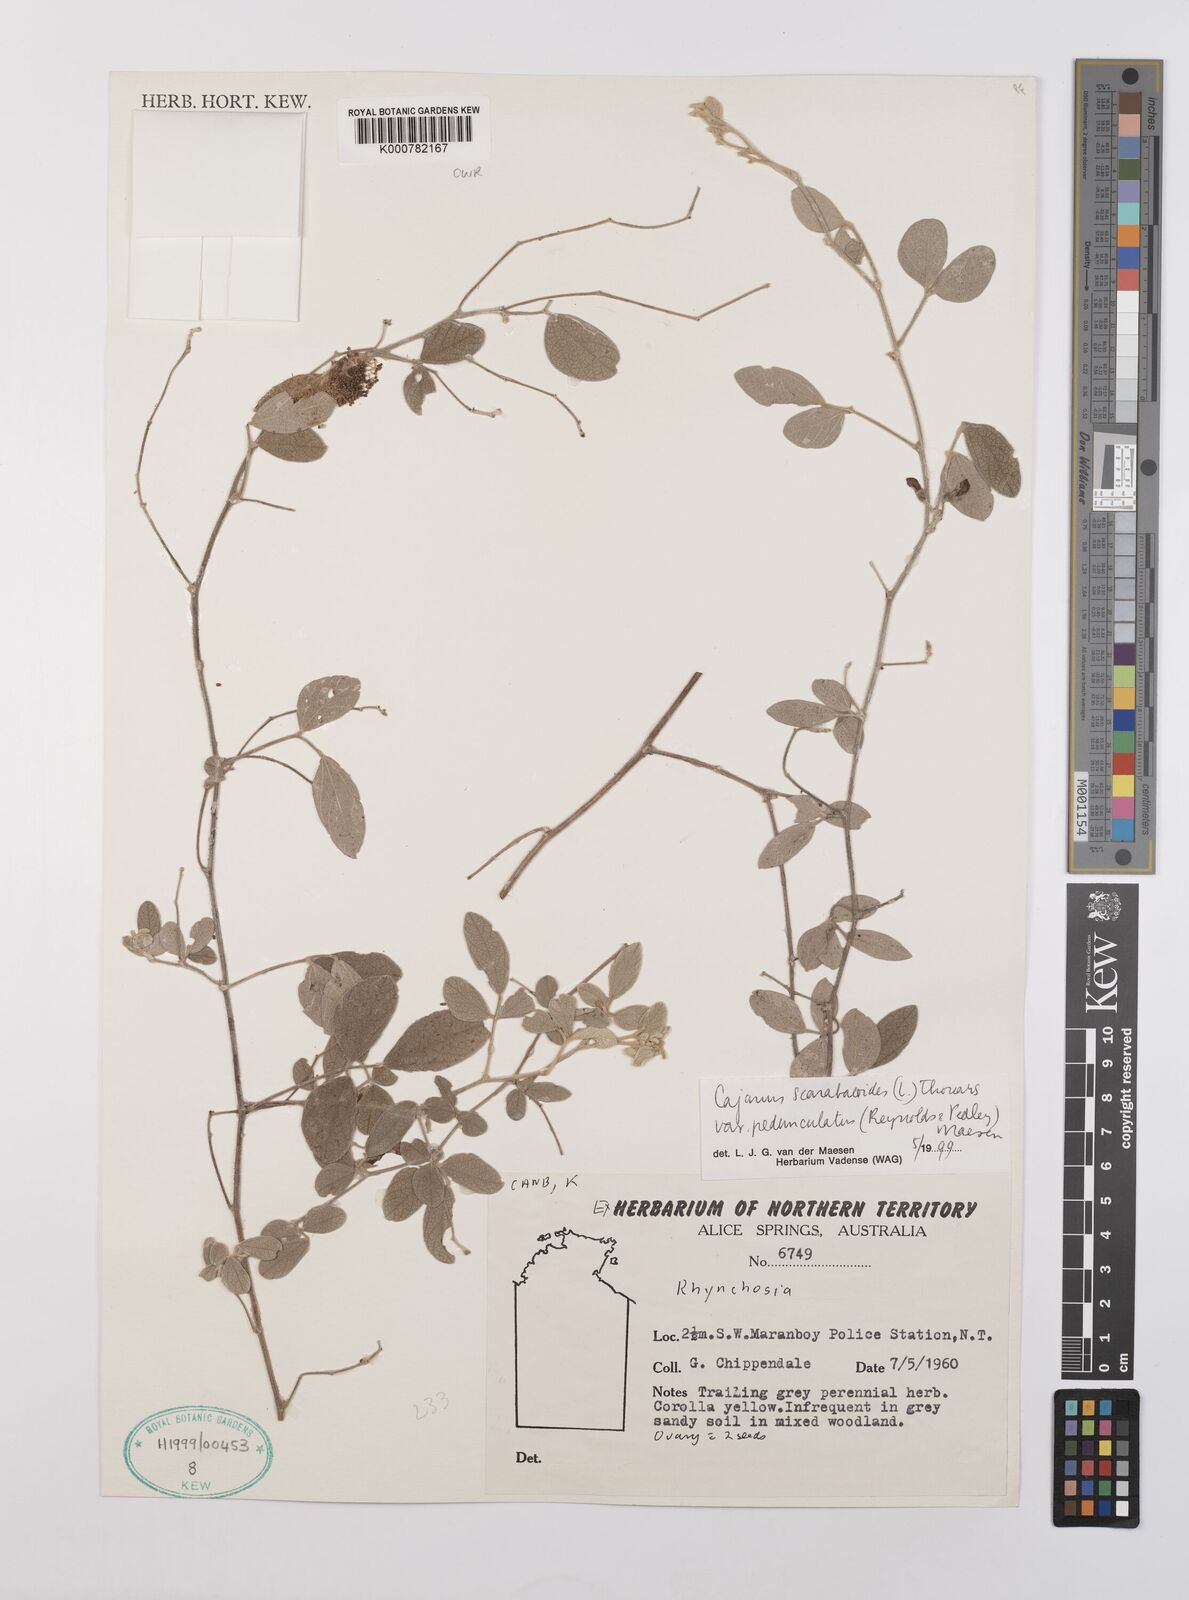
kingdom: Plantae
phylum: Tracheophyta
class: Magnoliopsida
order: Fabales
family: Fabaceae
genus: Cajanus
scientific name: Cajanus scarabaeoides
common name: Showy pigeonpea
